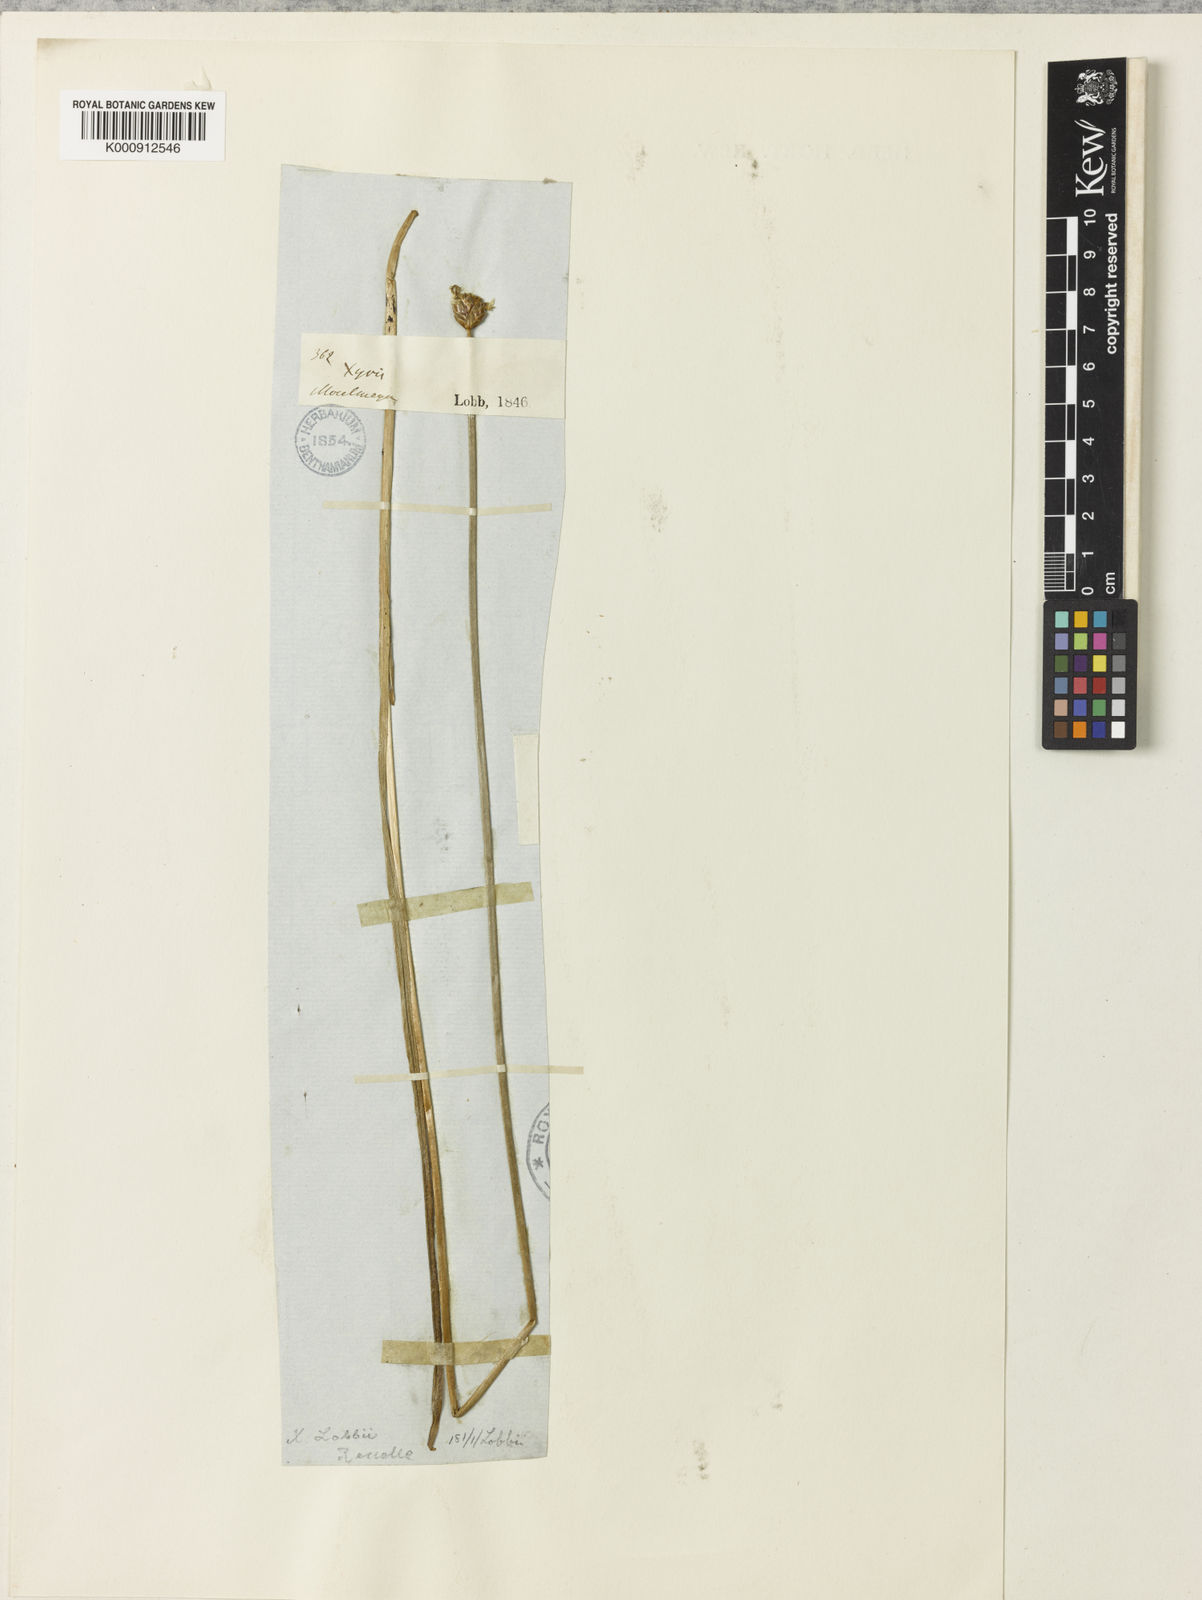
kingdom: Plantae
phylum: Tracheophyta
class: Liliopsida
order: Poales
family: Xyridaceae
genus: Xyris
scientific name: Xyris tuberosa
